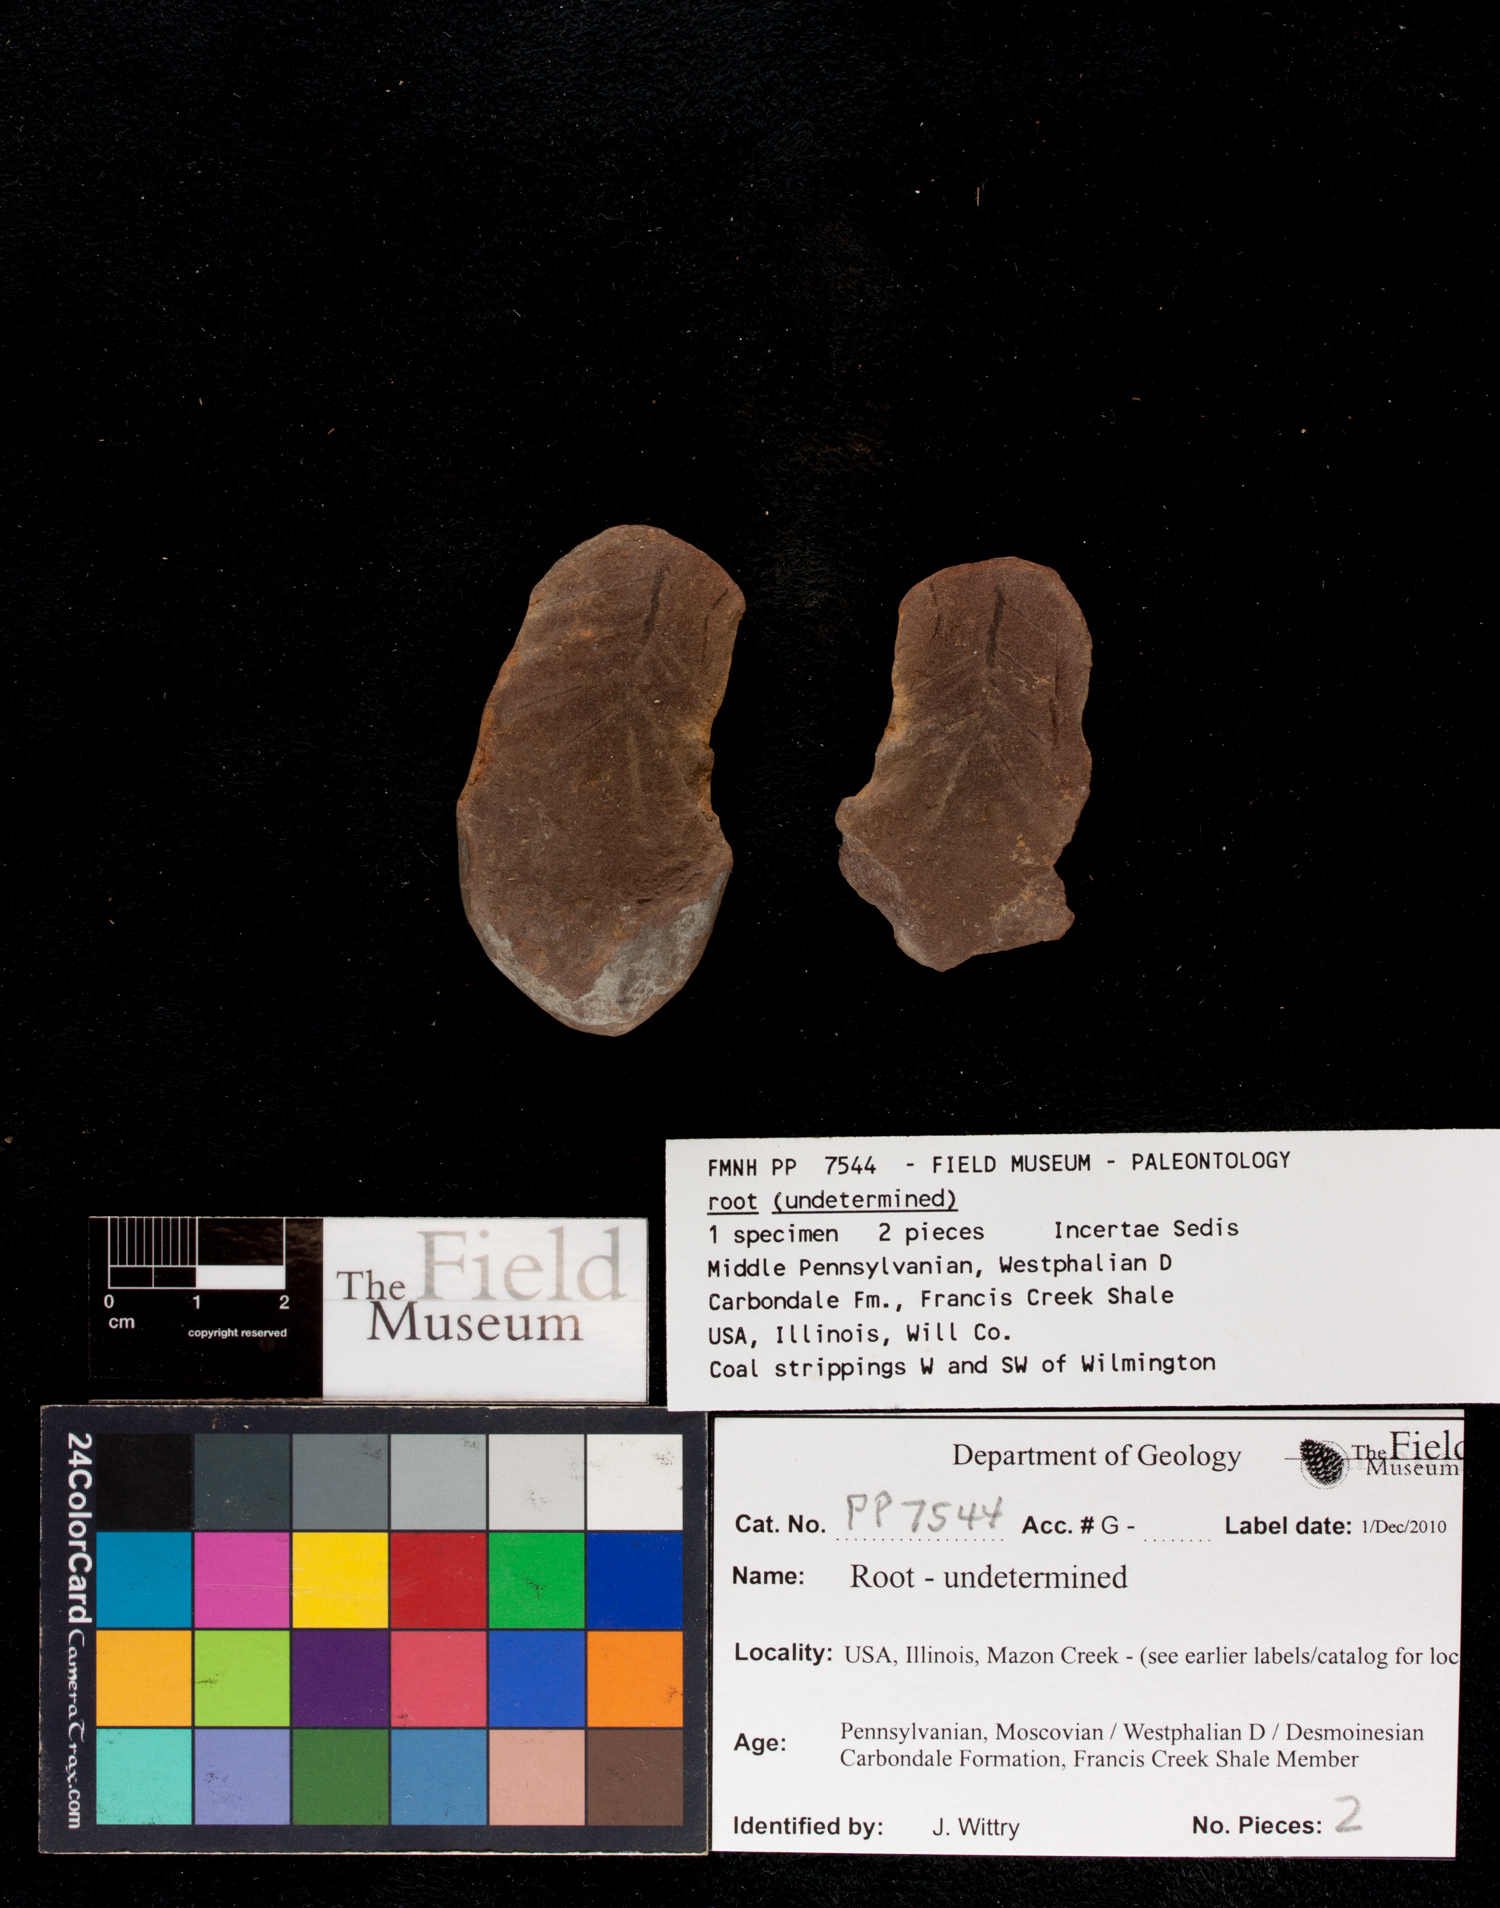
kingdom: Plantae
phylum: Tracheophyta
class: Polypodiopsida
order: Equisetales
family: Calamitaceae
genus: Radicites
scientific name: Radicites
